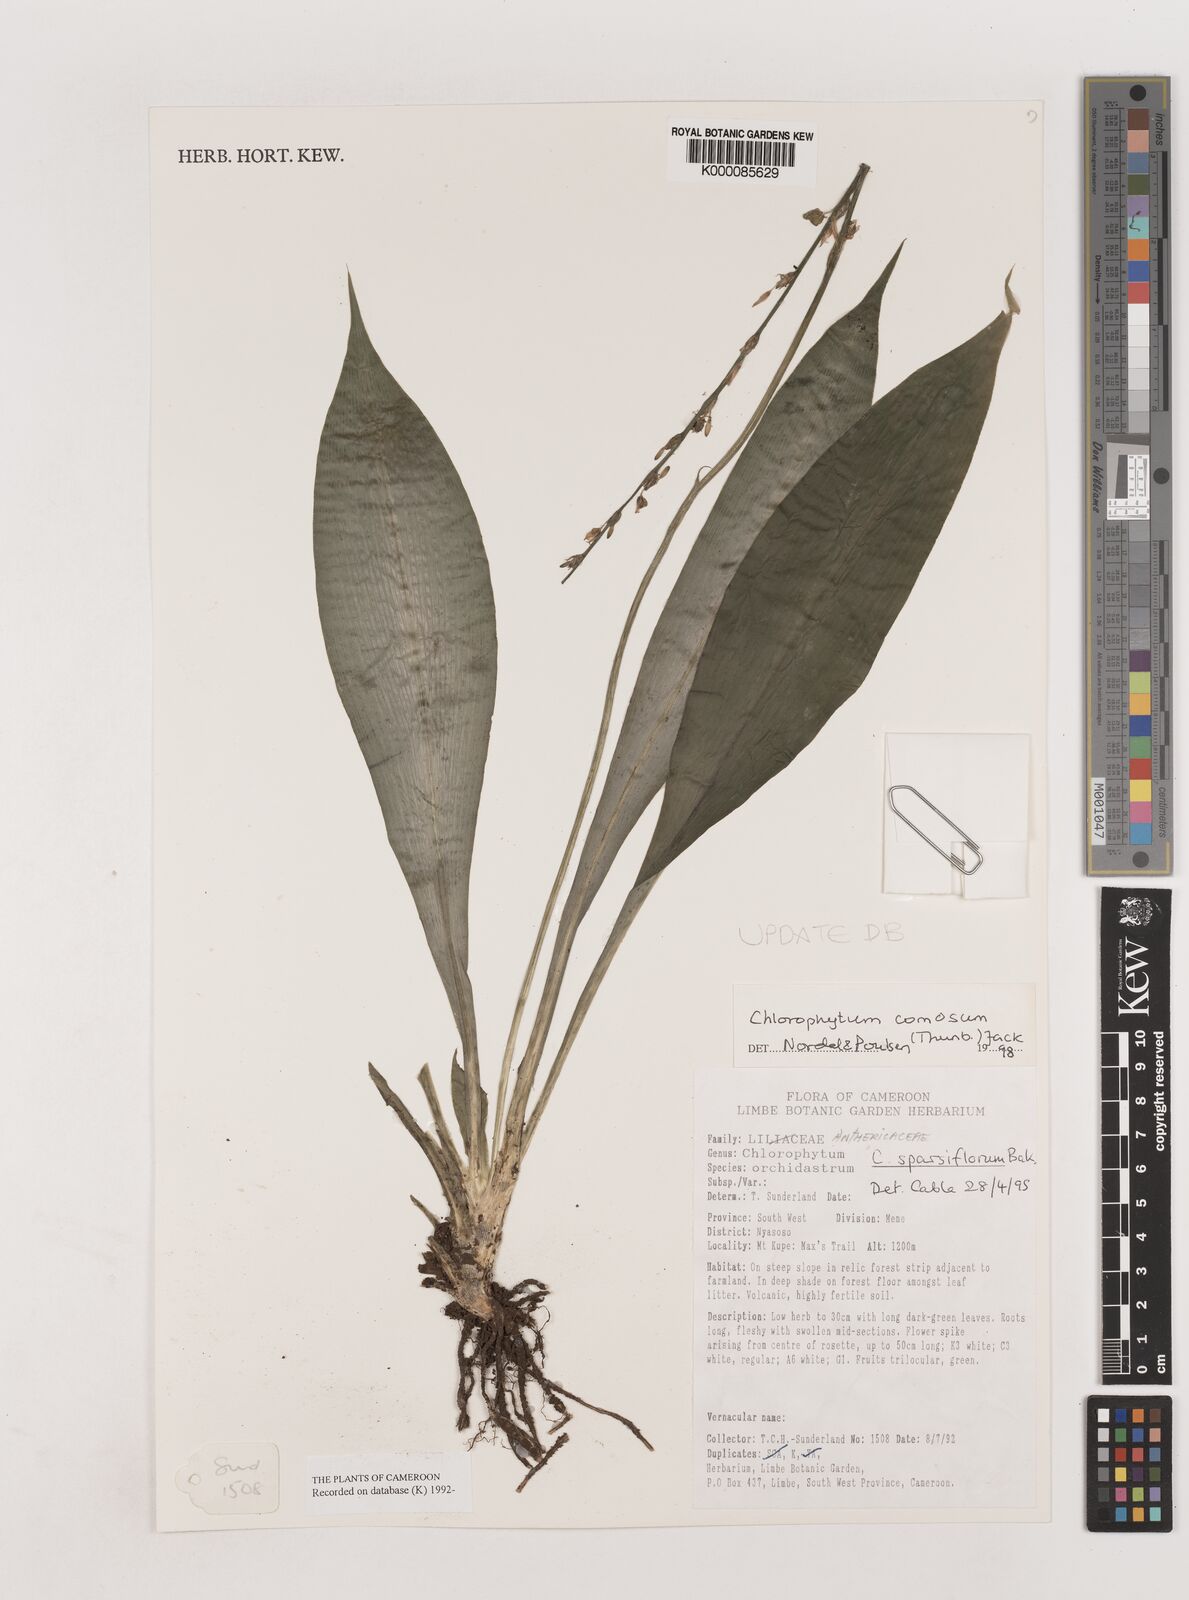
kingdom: Plantae
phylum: Tracheophyta
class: Liliopsida
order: Asparagales
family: Asparagaceae
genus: Chlorophytum
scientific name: Chlorophytum sparsiflorum
